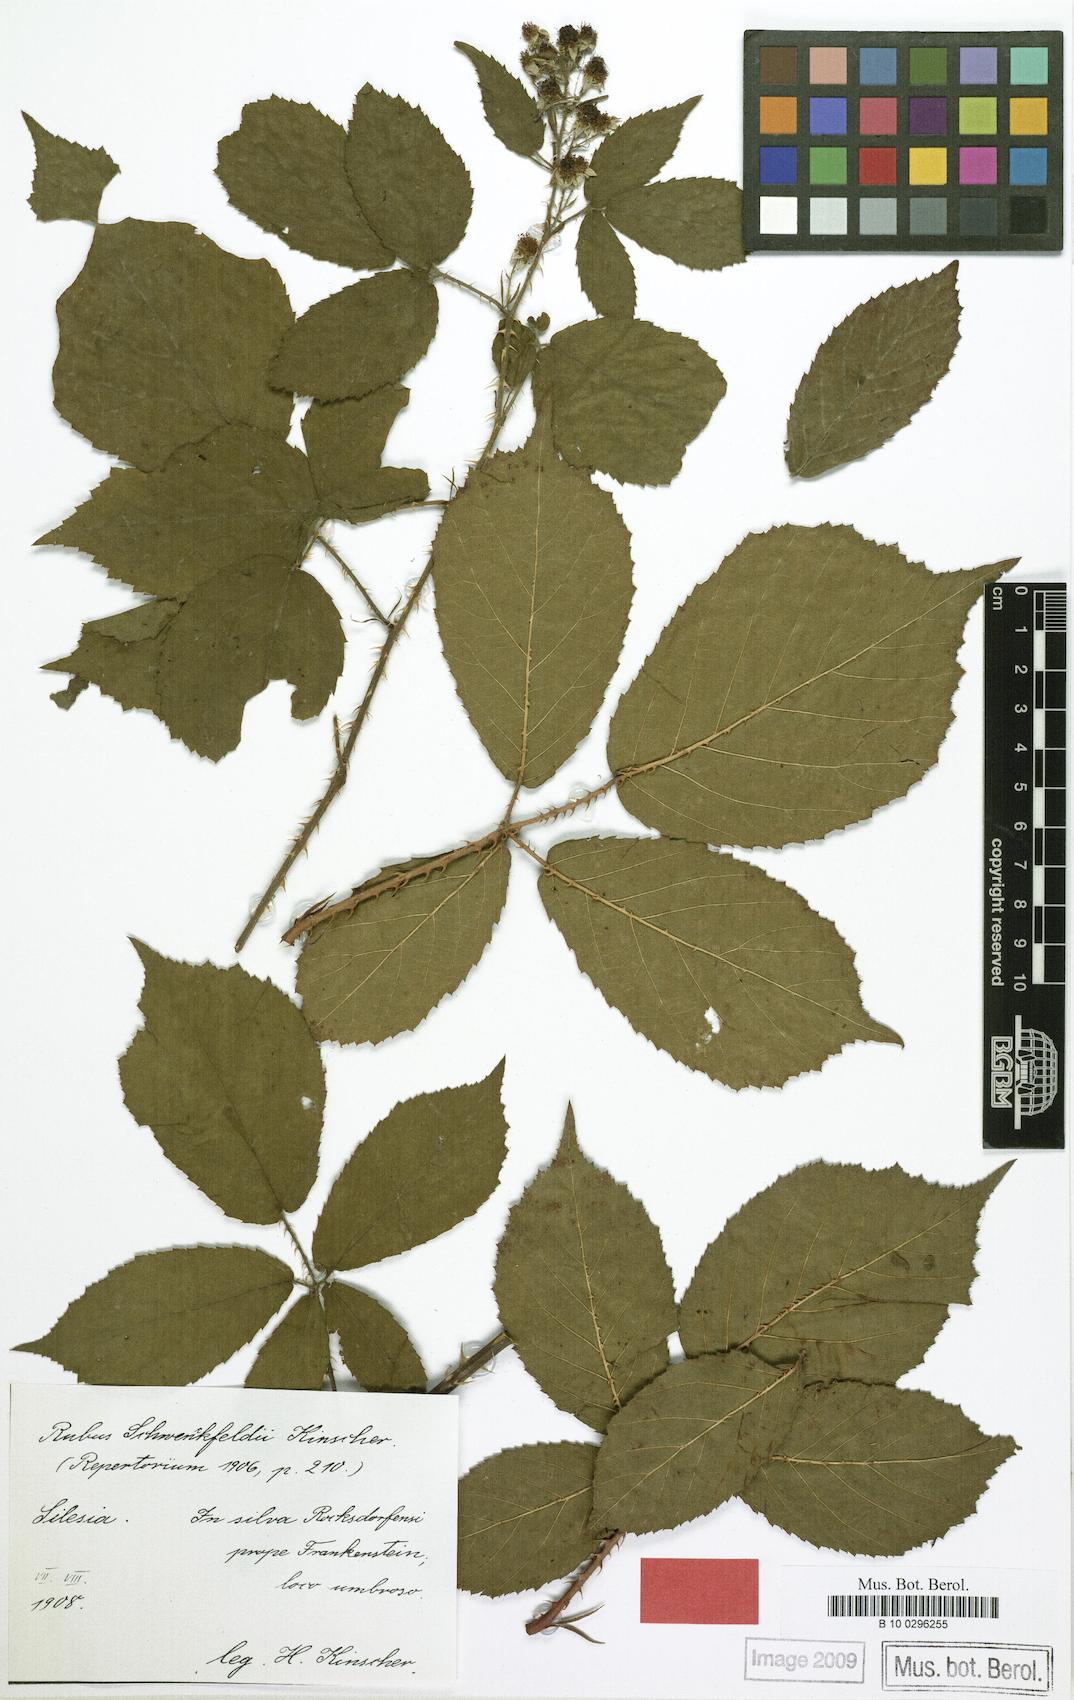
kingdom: Plantae
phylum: Tracheophyta
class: Magnoliopsida
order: Rosales
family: Rosaceae
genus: Rubus
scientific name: Rubus cimbricus
